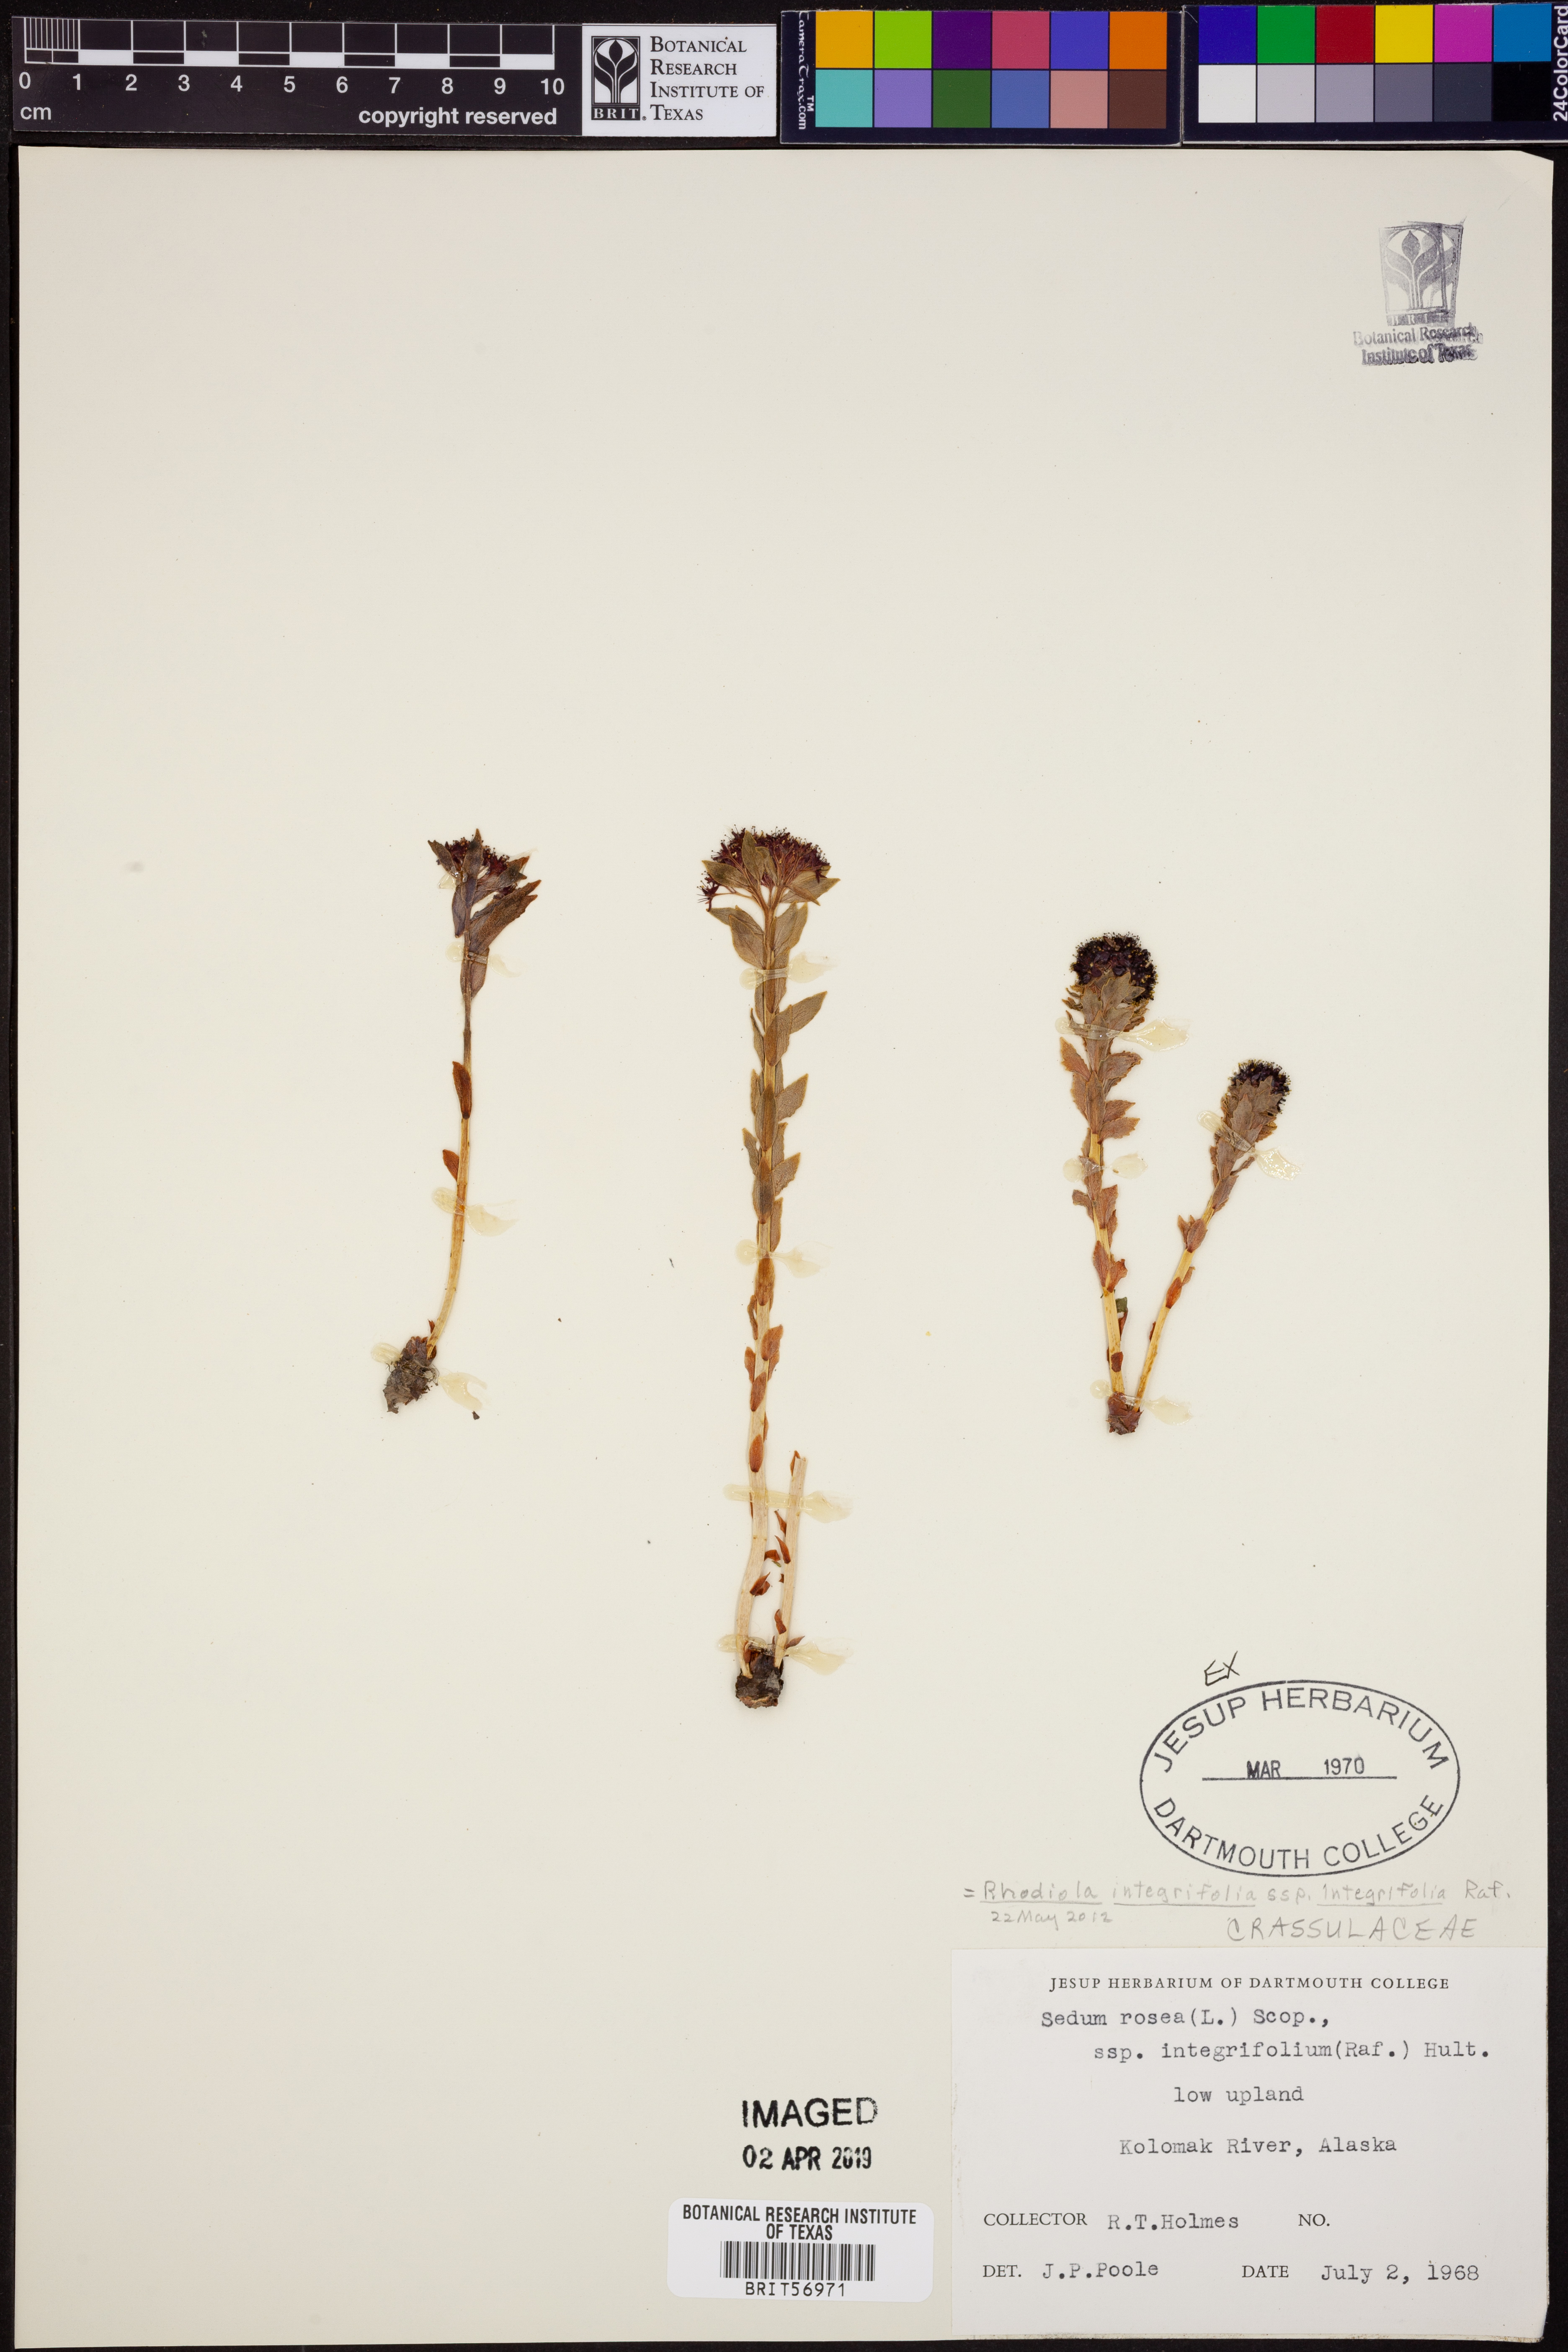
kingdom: Plantae
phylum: Tracheophyta
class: Magnoliopsida
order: Saxifragales
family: Crassulaceae
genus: Rhodiola
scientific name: Rhodiola integrifolia
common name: Western roseroot
